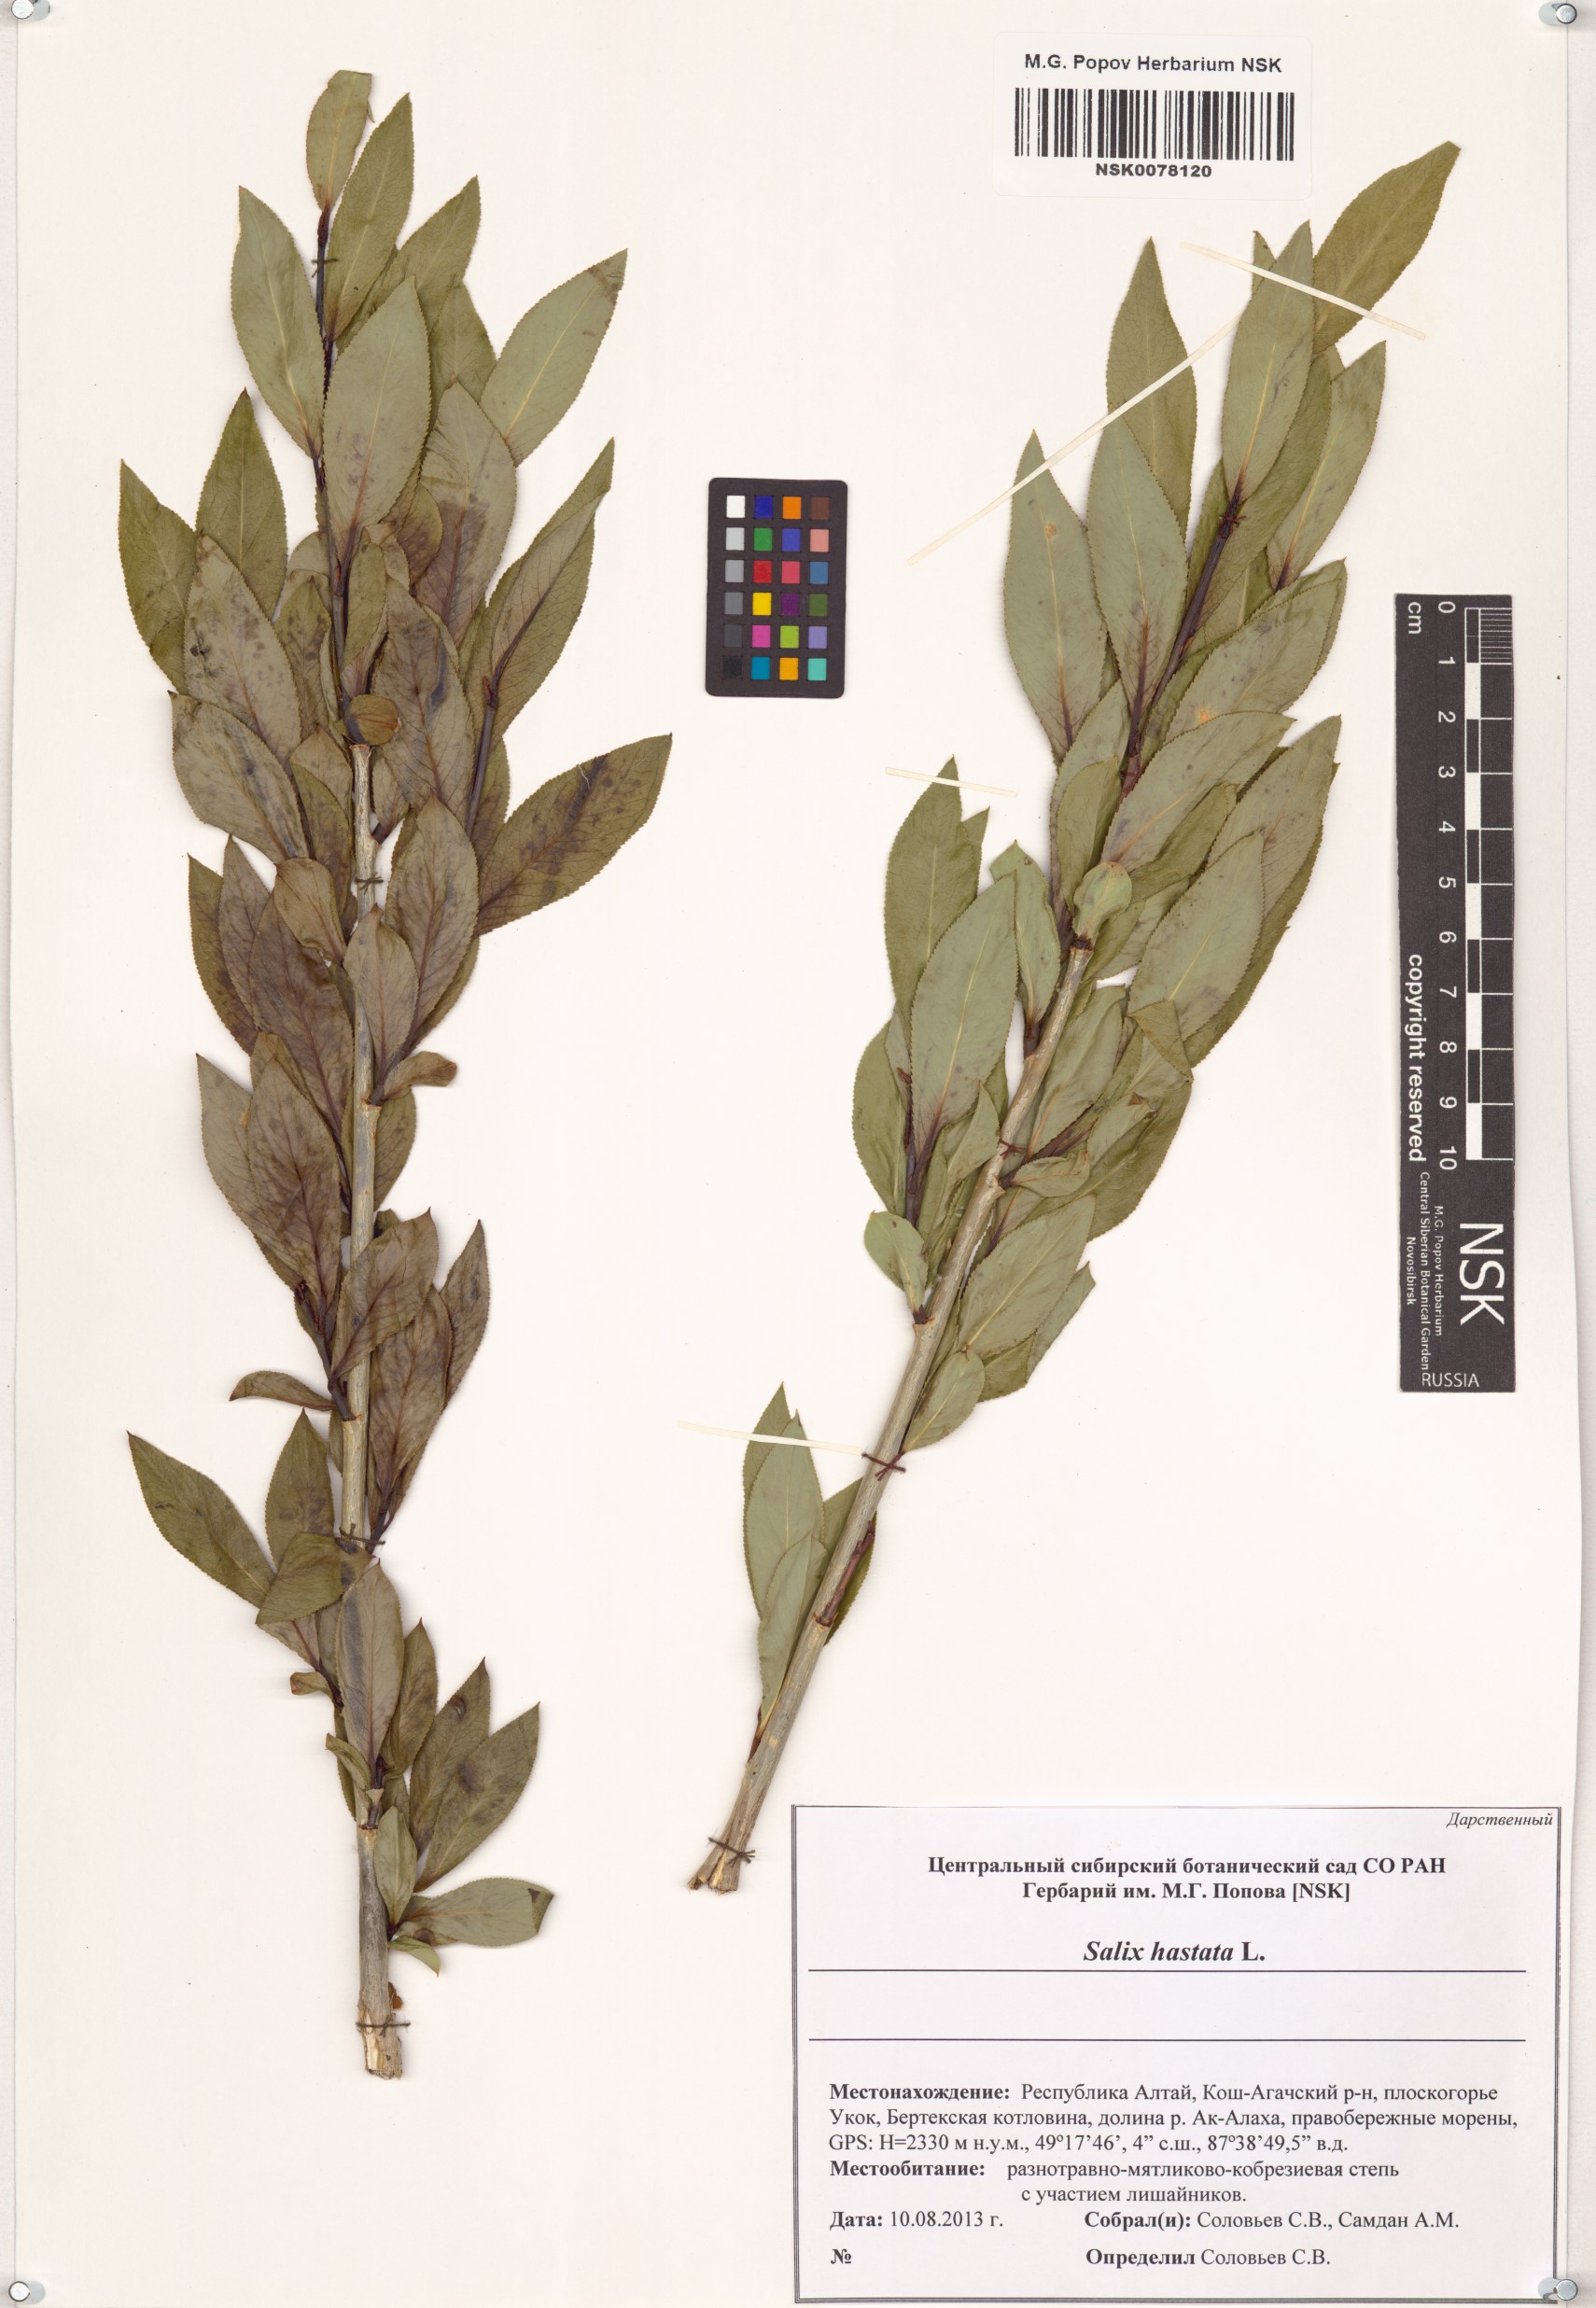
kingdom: Plantae
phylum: Tracheophyta
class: Magnoliopsida
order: Malpighiales
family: Salicaceae
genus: Salix
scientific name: Salix hastata
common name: Halberd willow
